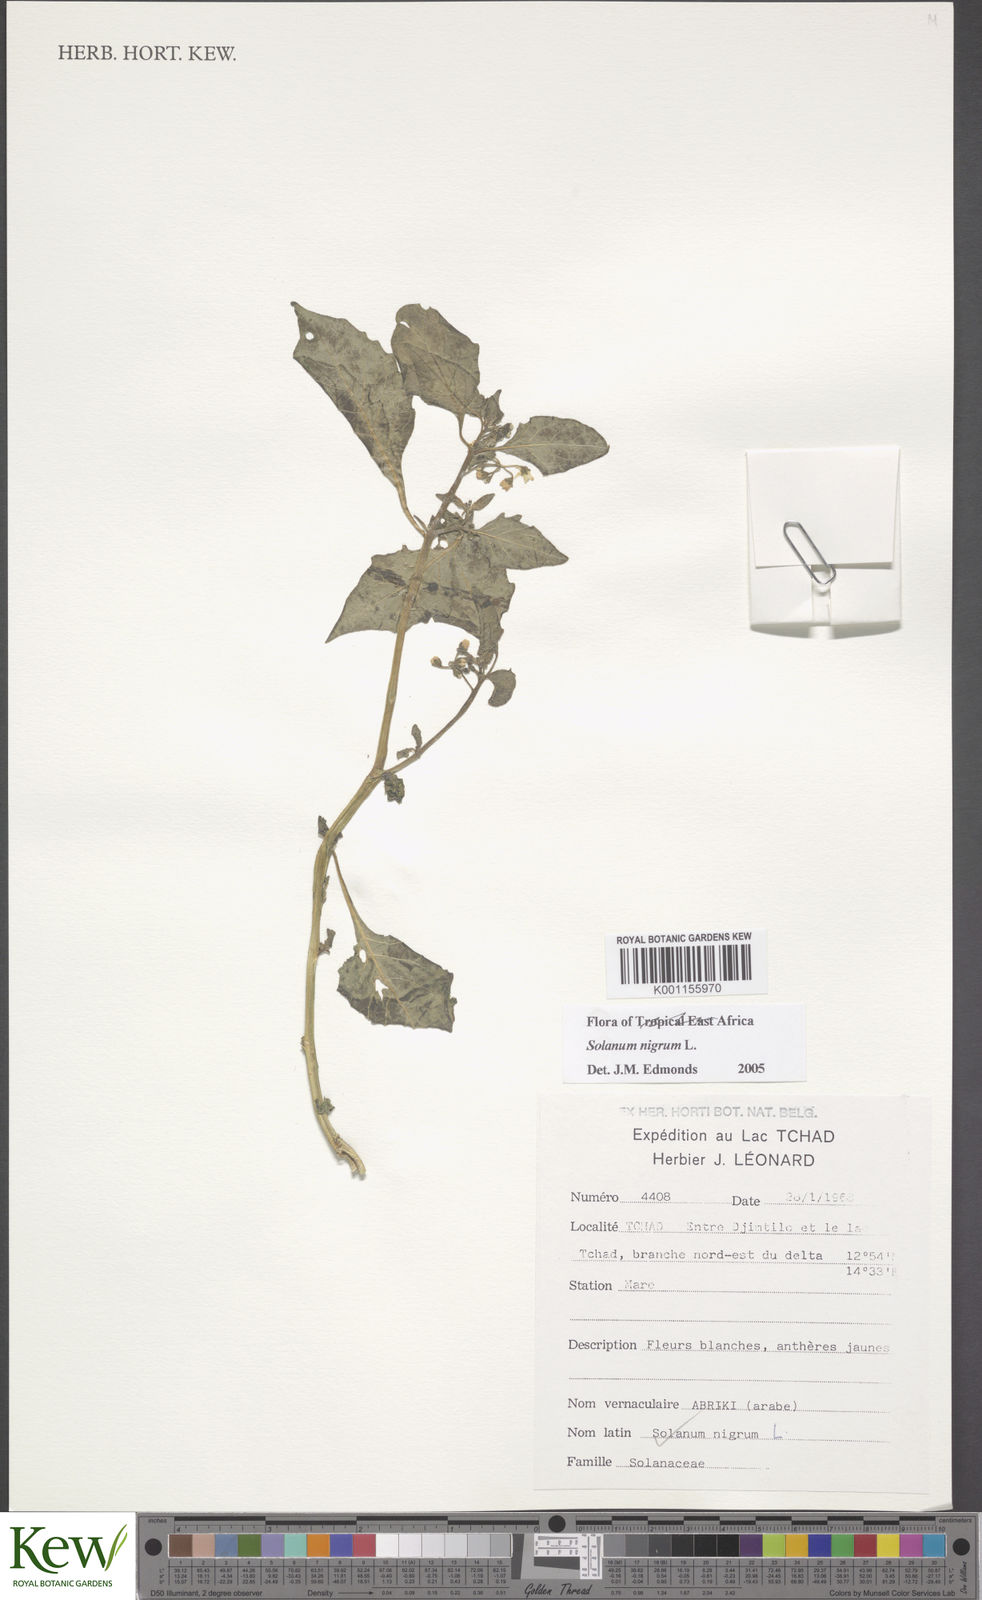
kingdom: Plantae
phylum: Tracheophyta
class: Magnoliopsida
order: Solanales
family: Solanaceae
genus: Solanum
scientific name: Solanum villosum
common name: Red nightshade
